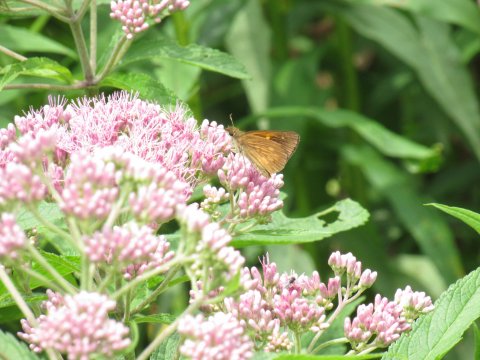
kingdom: Animalia
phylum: Arthropoda
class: Insecta
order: Lepidoptera
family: Hesperiidae
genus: Poanes
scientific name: Poanes viator
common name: Broad-winged Skipper
